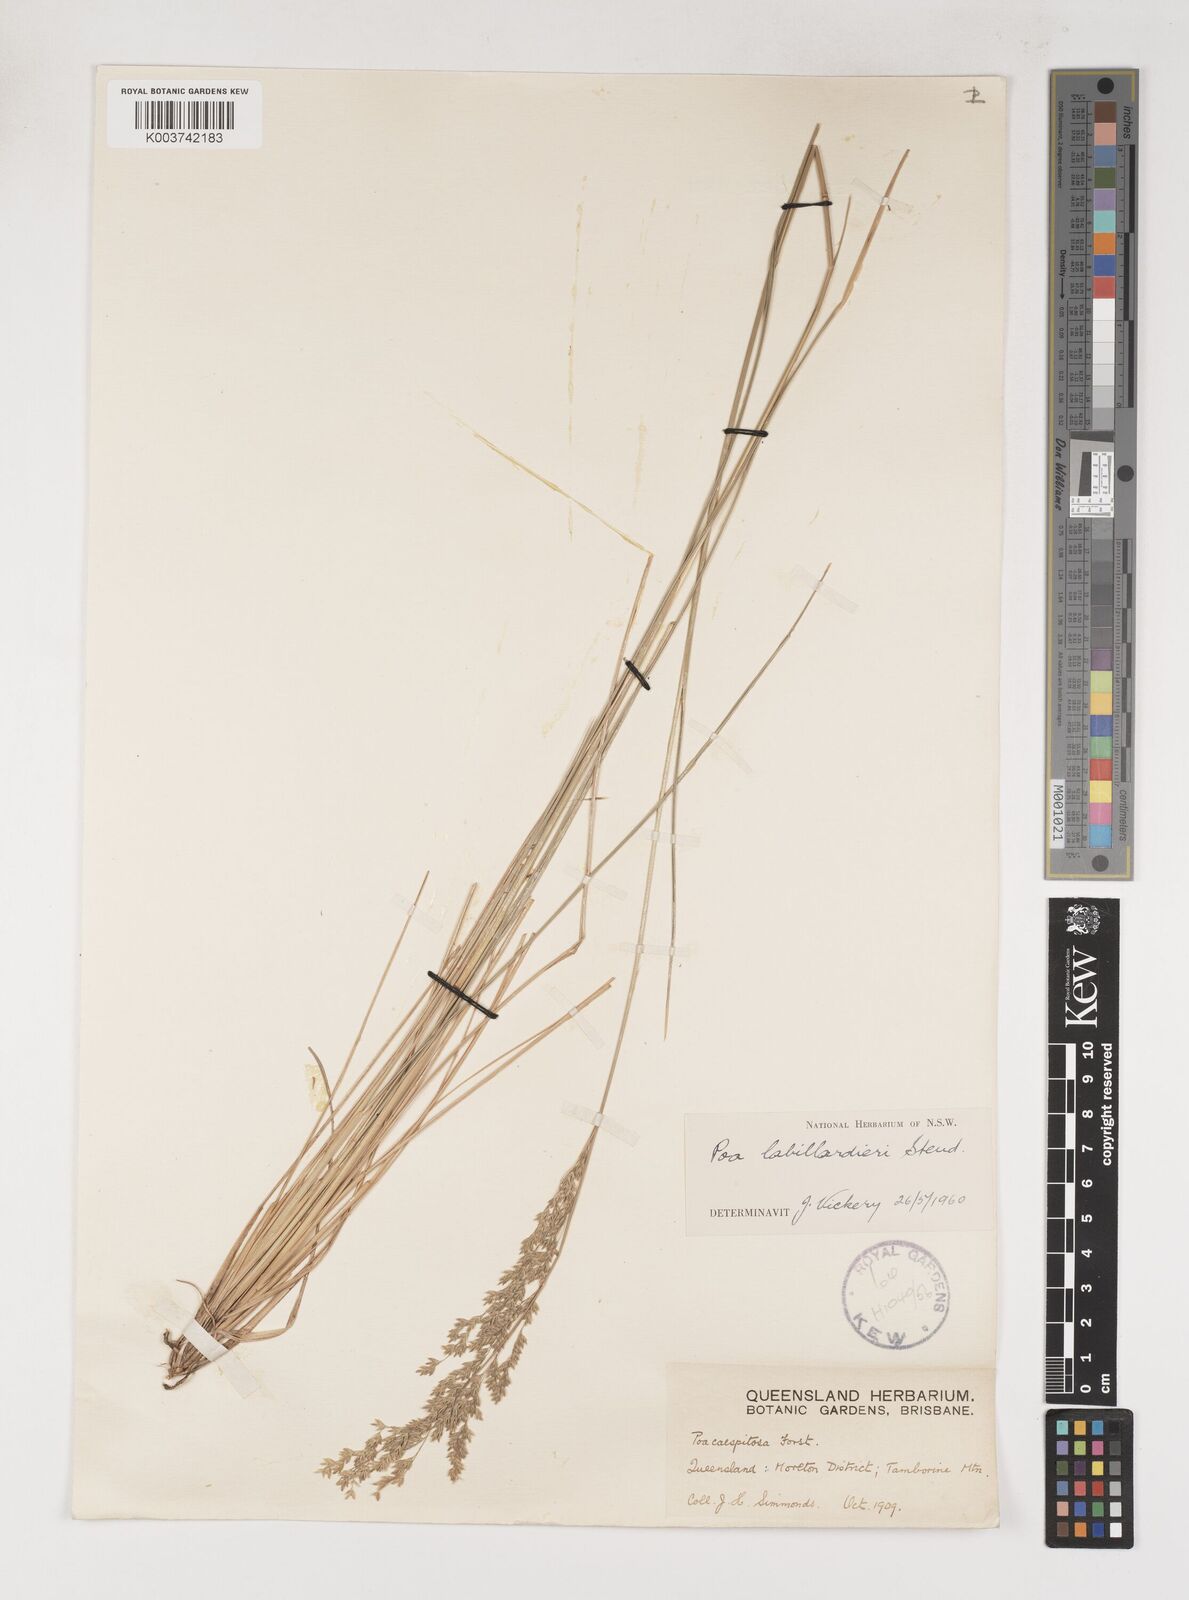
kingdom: Plantae
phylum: Tracheophyta
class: Liliopsida
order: Poales
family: Poaceae
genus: Poa
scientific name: Poa labillardierei
